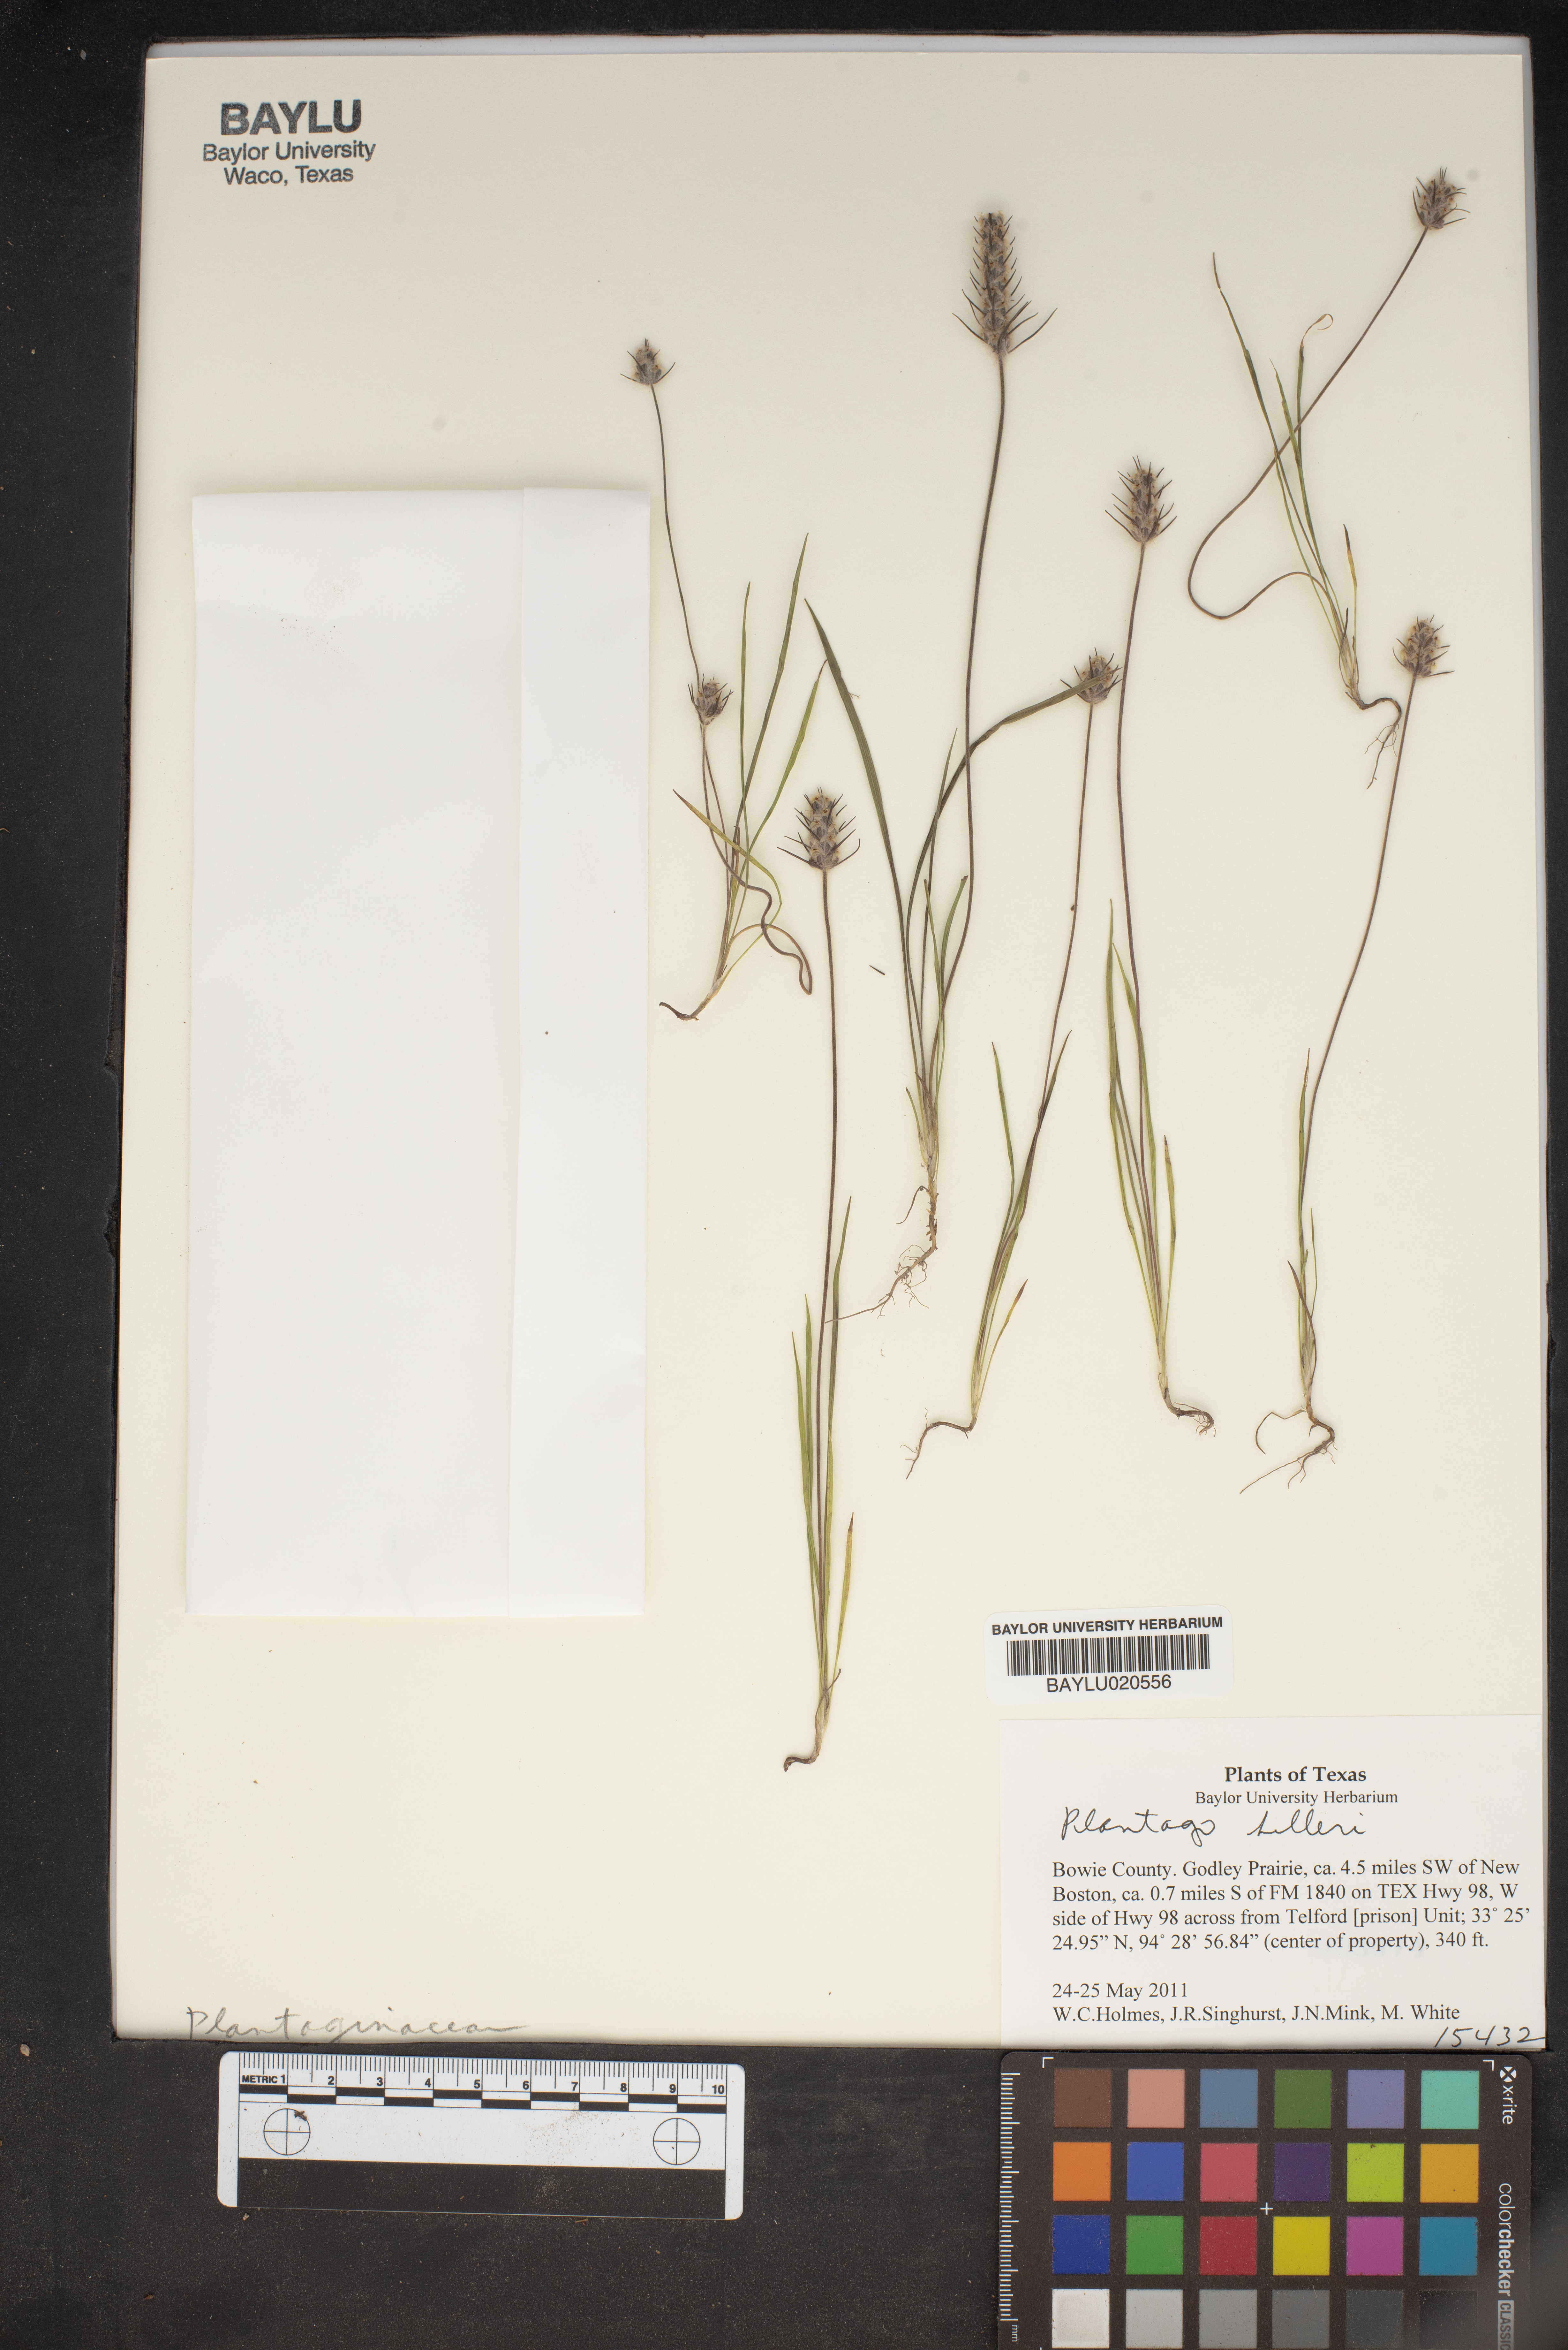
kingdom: Plantae
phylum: Tracheophyta
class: Magnoliopsida
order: Lamiales
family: Plantaginaceae
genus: Plantago
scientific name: Plantago helleri
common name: Heller's plantain
